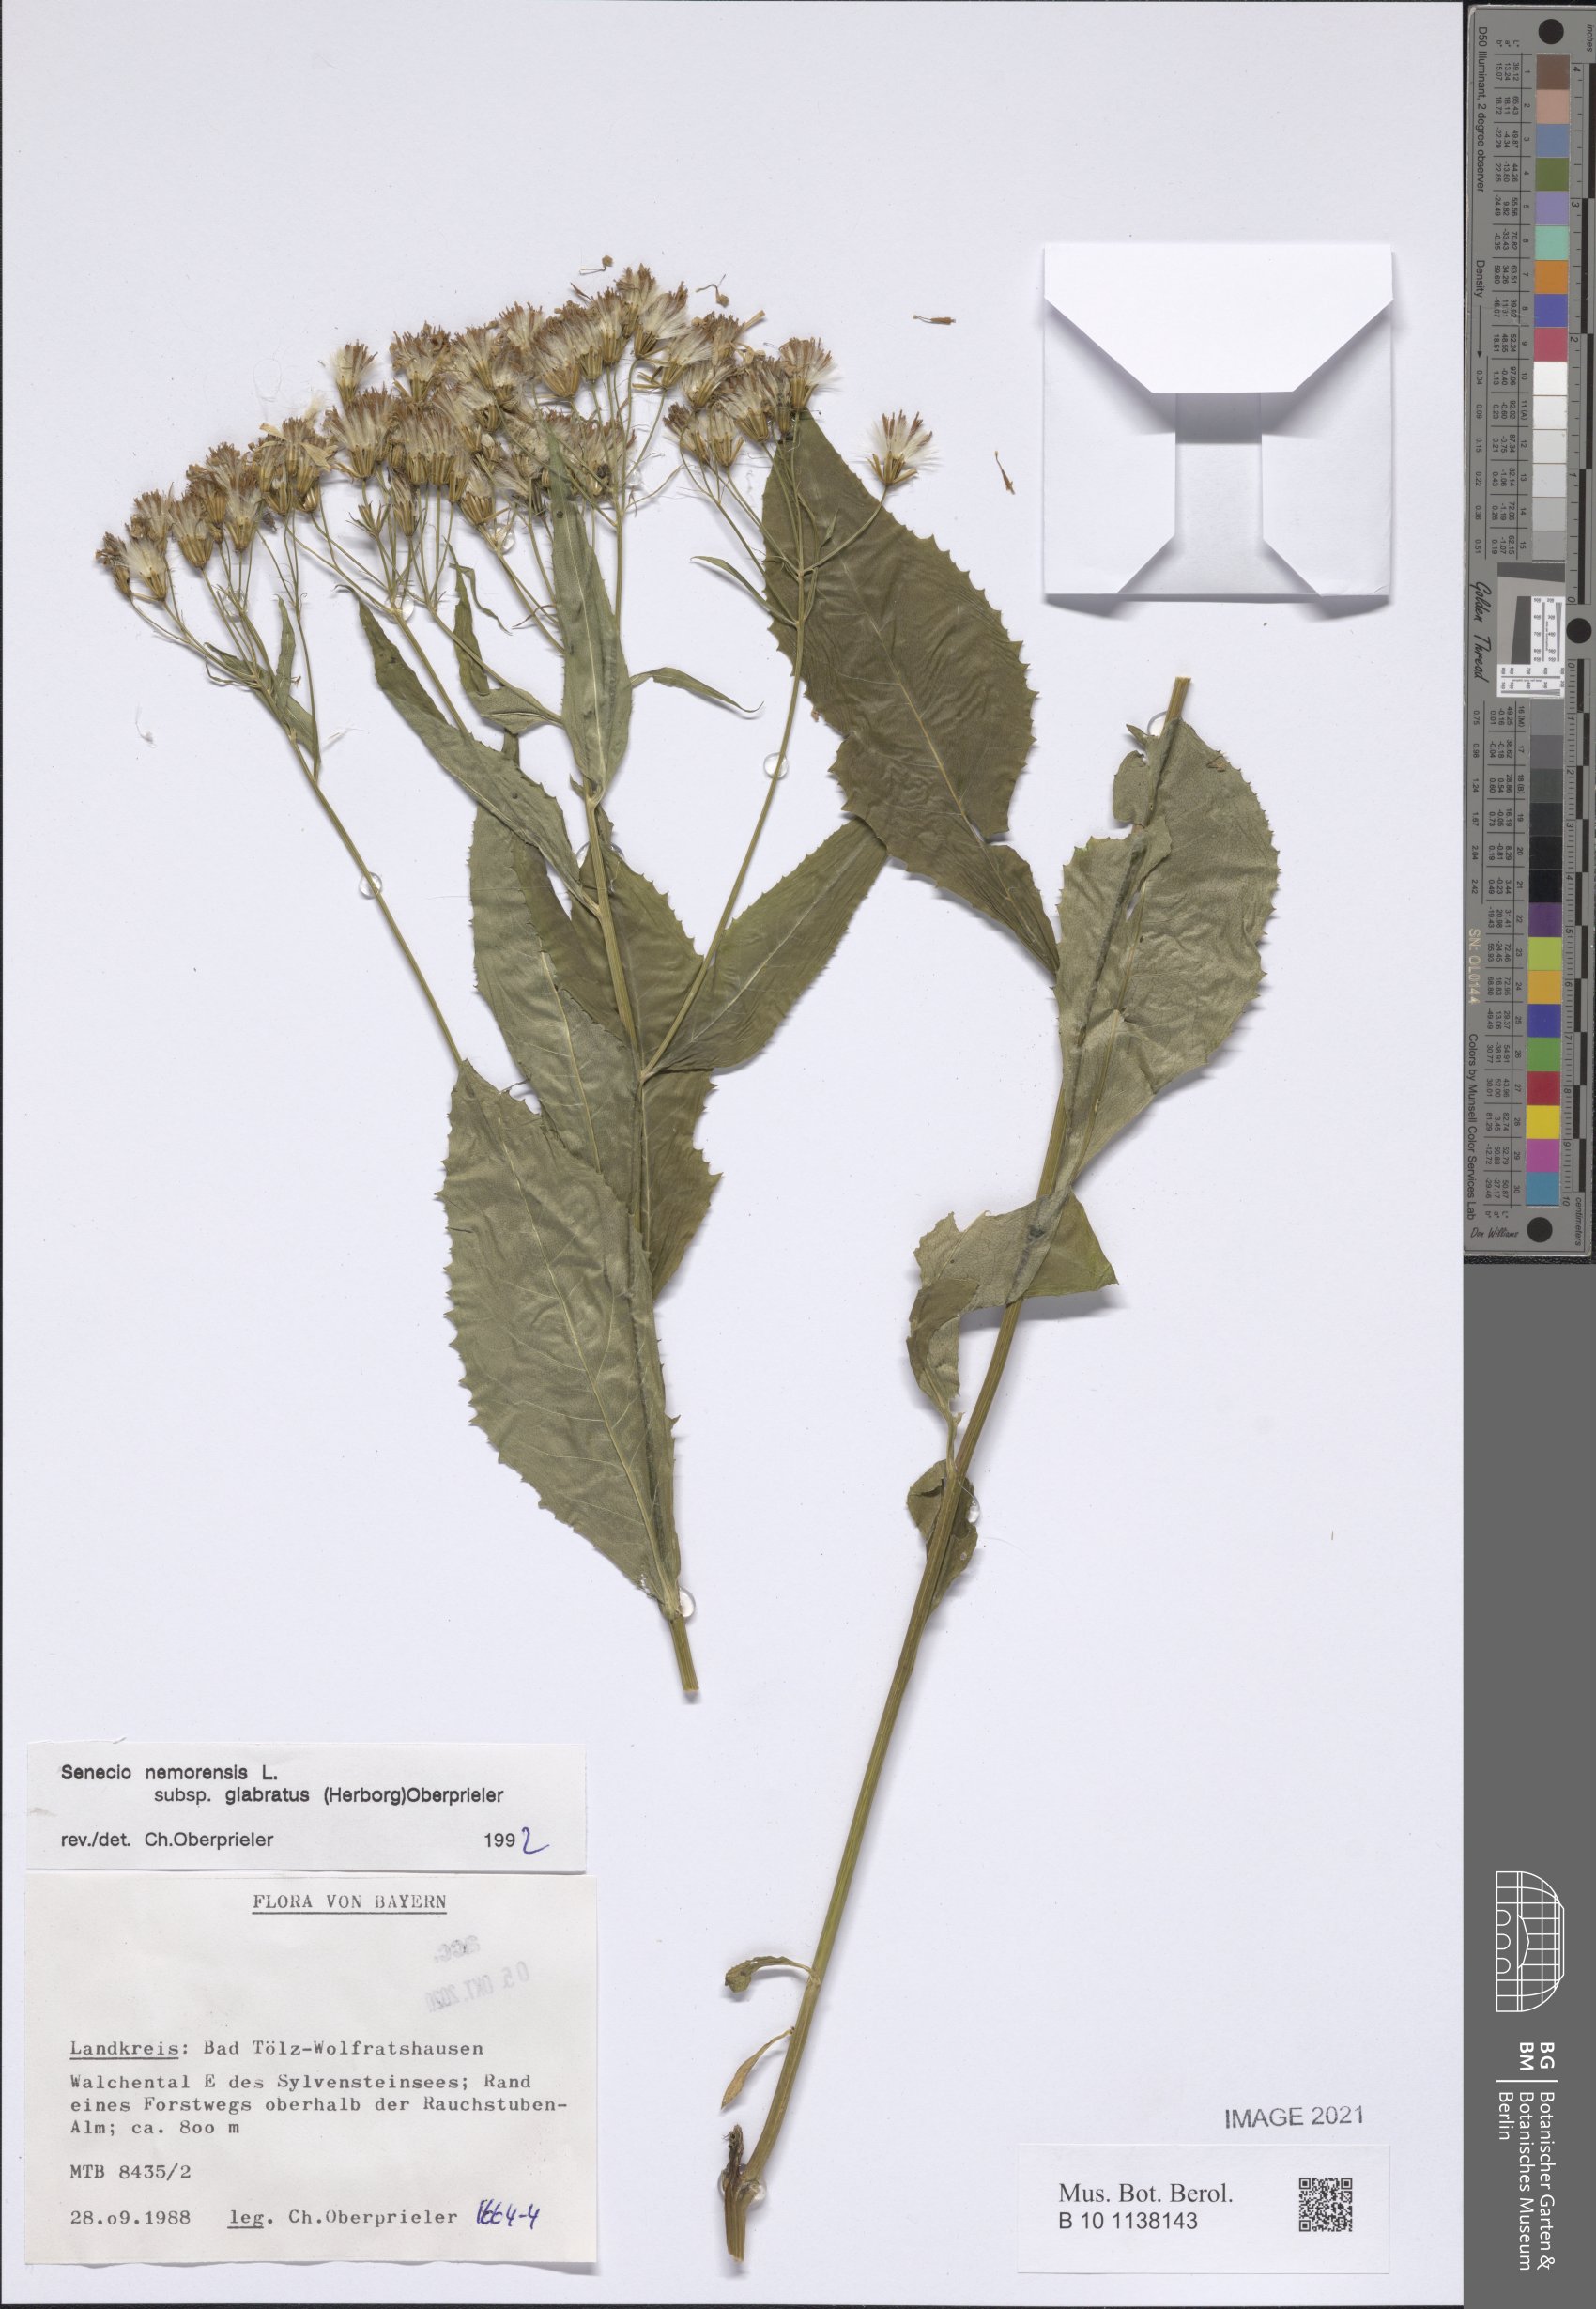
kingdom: Plantae
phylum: Tracheophyta
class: Magnoliopsida
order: Asterales
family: Asteraceae
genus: Senecio
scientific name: Senecio germanicus
